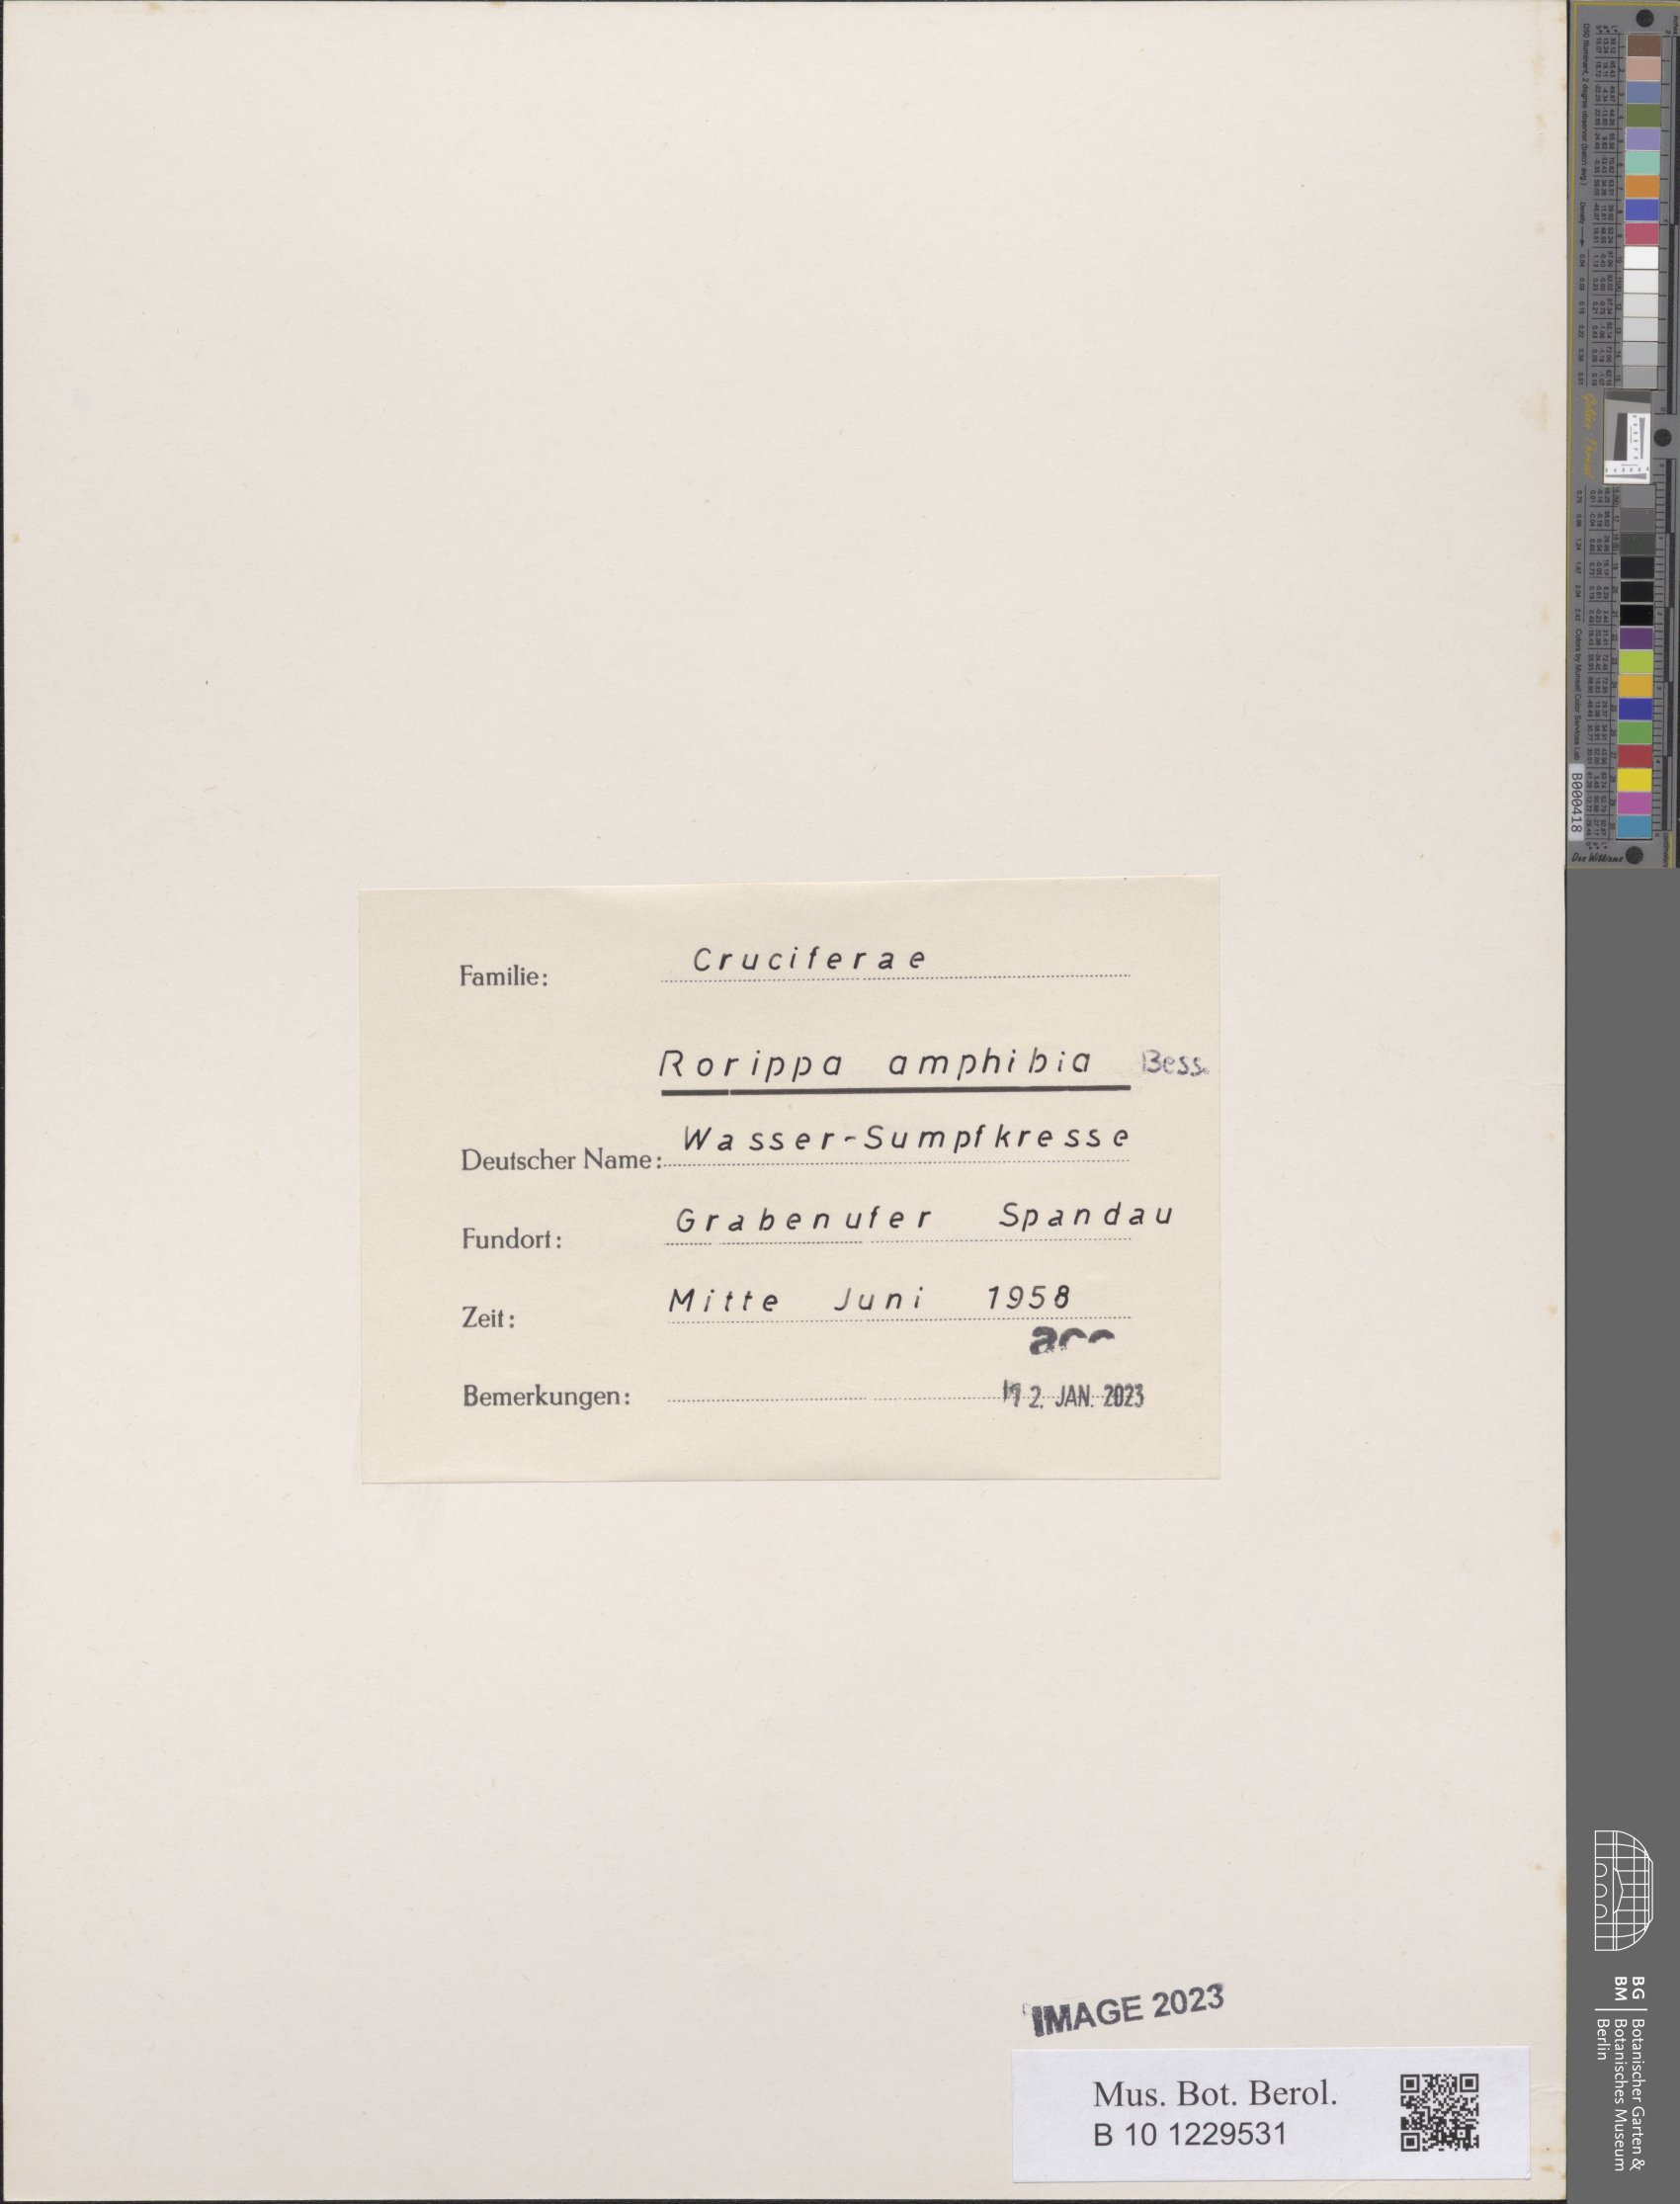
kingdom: Plantae
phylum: Tracheophyta
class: Magnoliopsida
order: Brassicales
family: Brassicaceae
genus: Rorippa
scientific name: Rorippa amphibia
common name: Great yellow-cress
